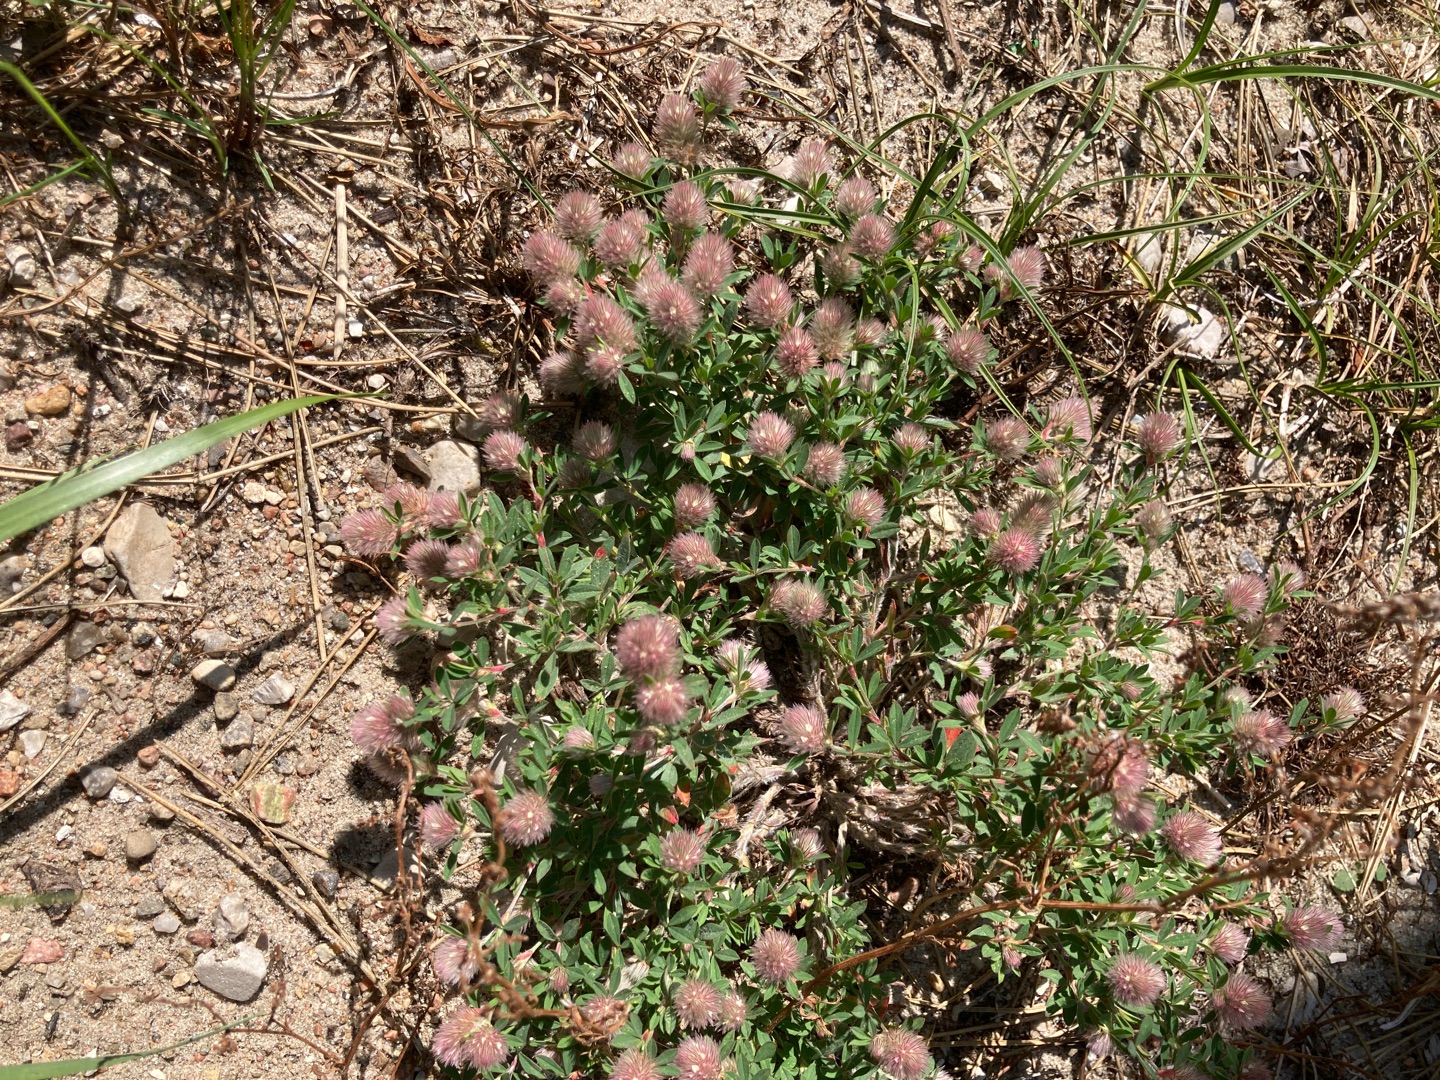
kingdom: Plantae
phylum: Tracheophyta
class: Magnoliopsida
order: Fabales
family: Fabaceae
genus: Trifolium
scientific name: Trifolium arvense
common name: Hare-kløver
